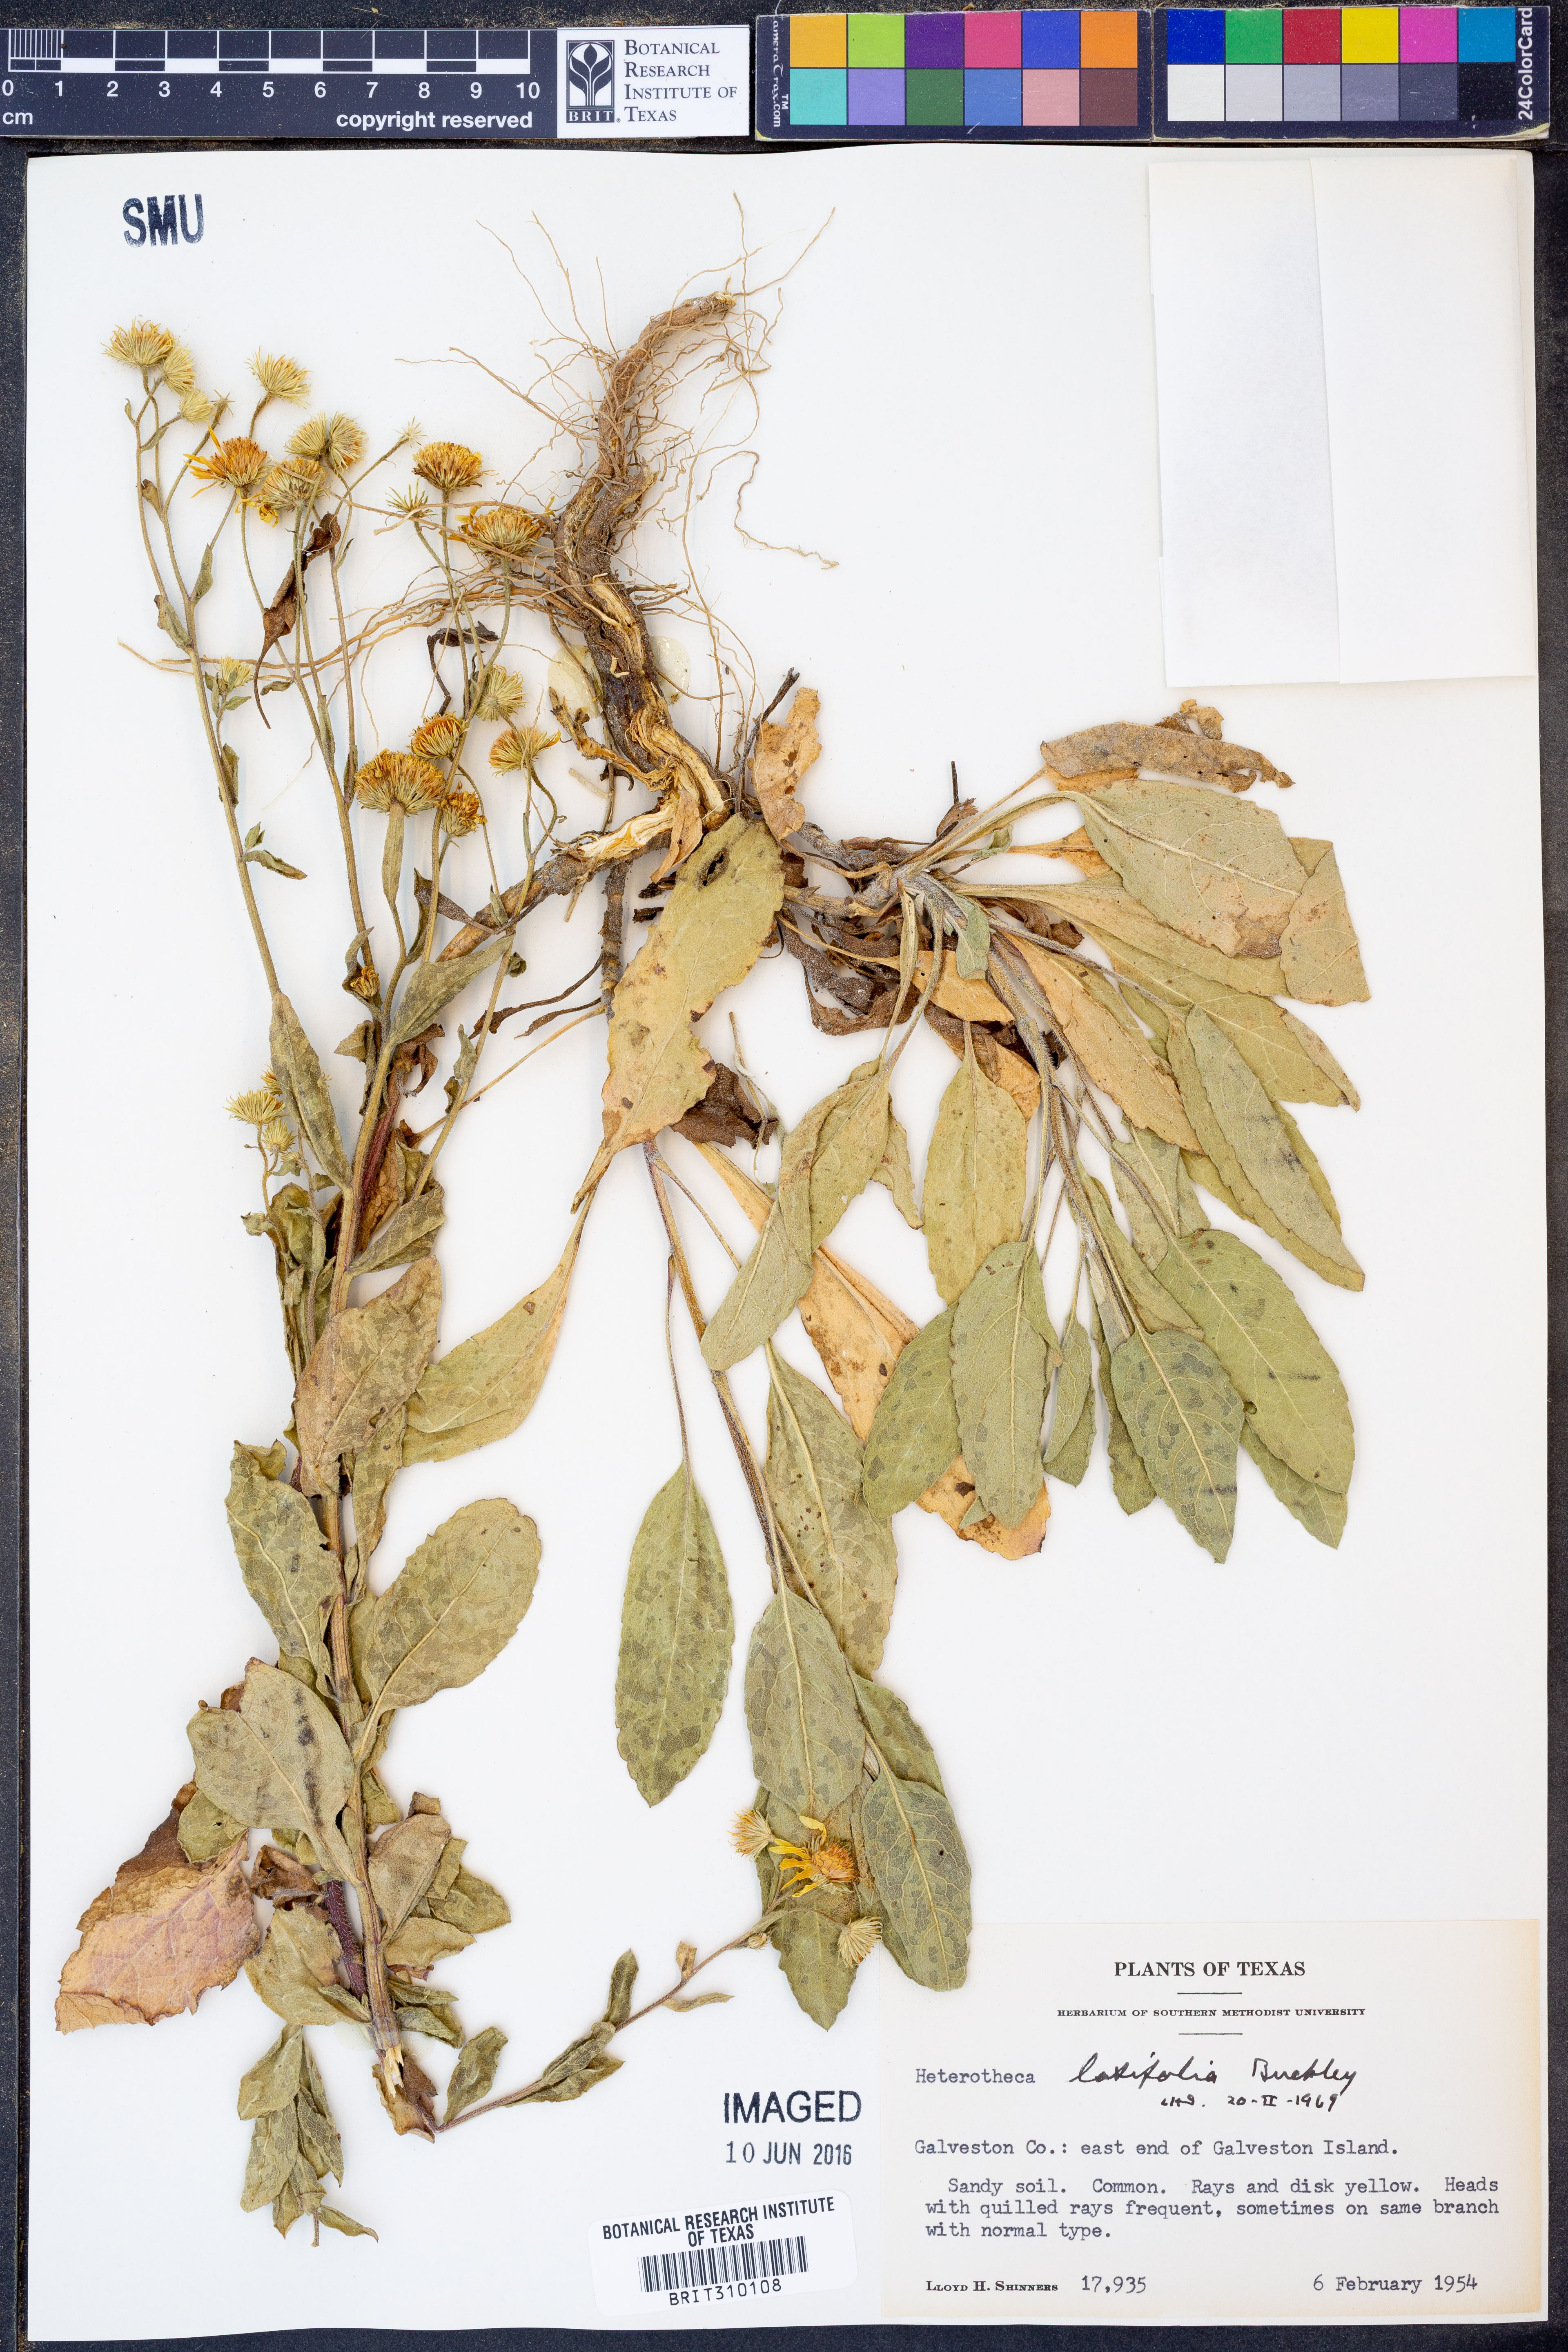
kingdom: Plantae
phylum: Tracheophyta
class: Magnoliopsida
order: Asterales
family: Asteraceae
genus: Heterotheca
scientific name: Heterotheca subaxillaris
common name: Camphorweed
